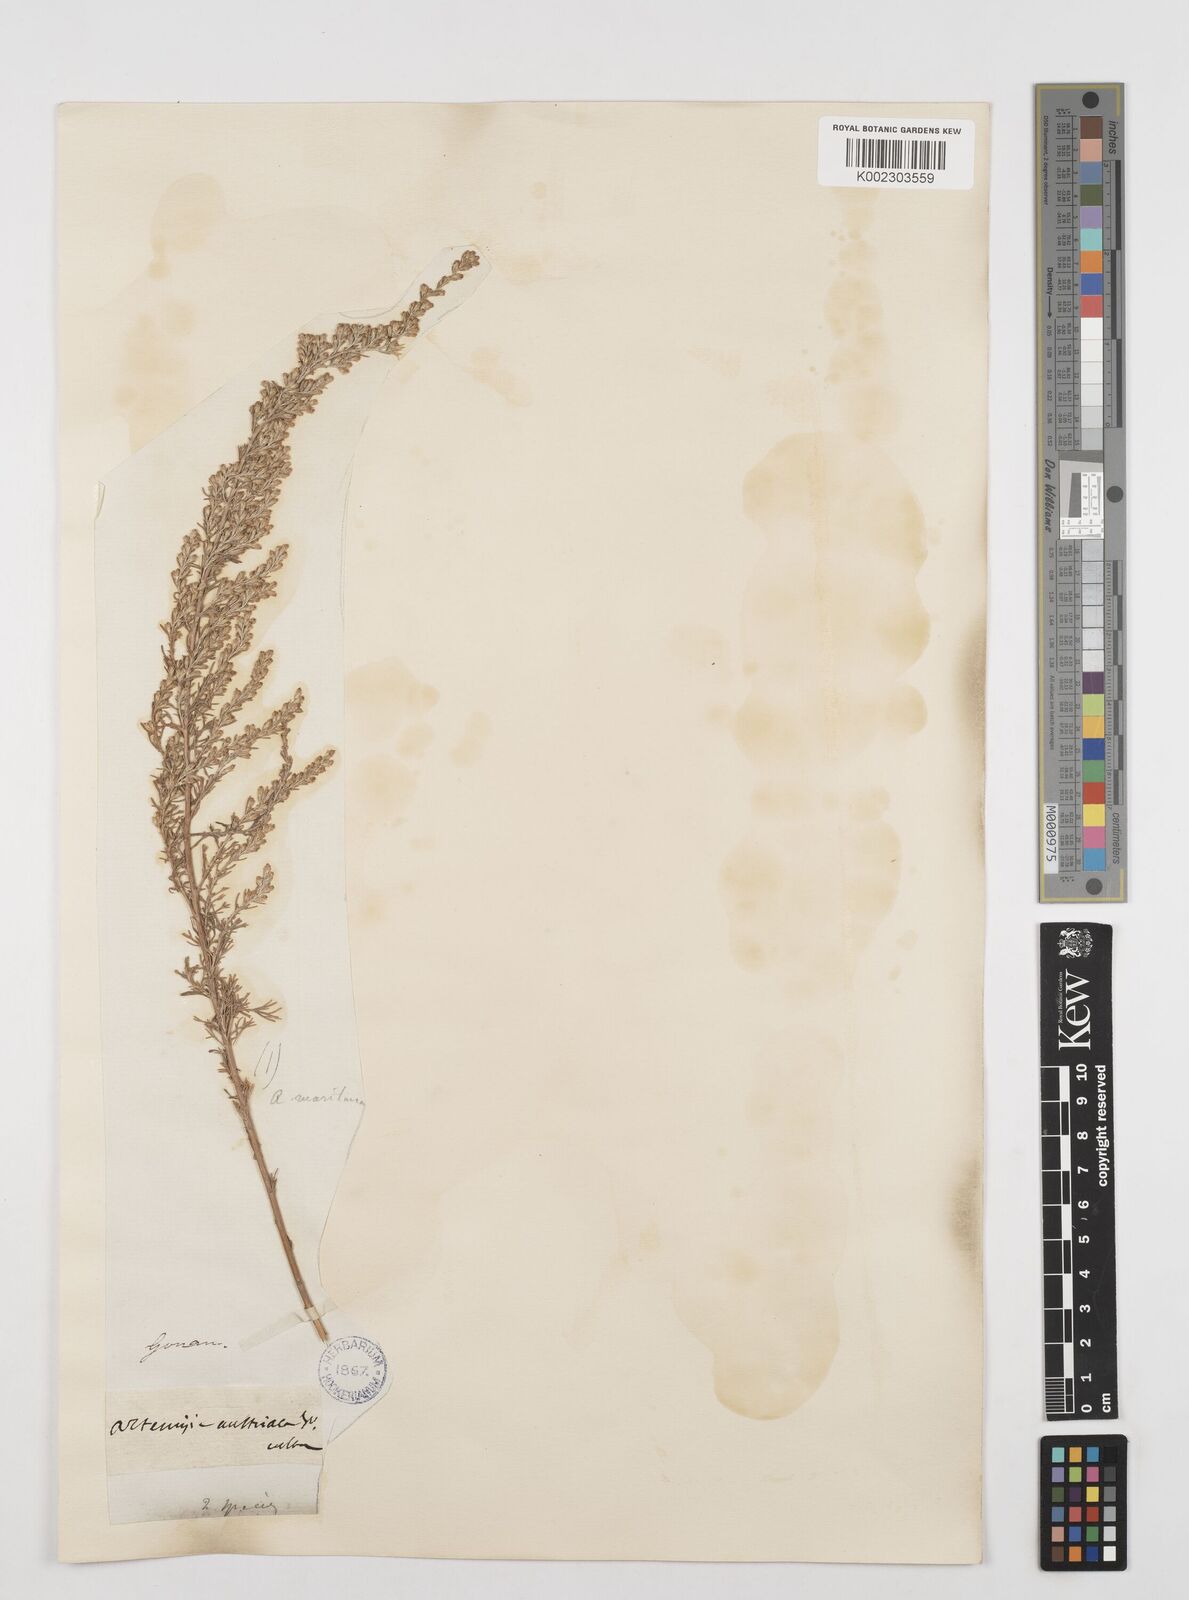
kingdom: Plantae
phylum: Tracheophyta
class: Magnoliopsida
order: Asterales
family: Asteraceae
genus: Artemisia
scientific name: Artemisia austriaca
